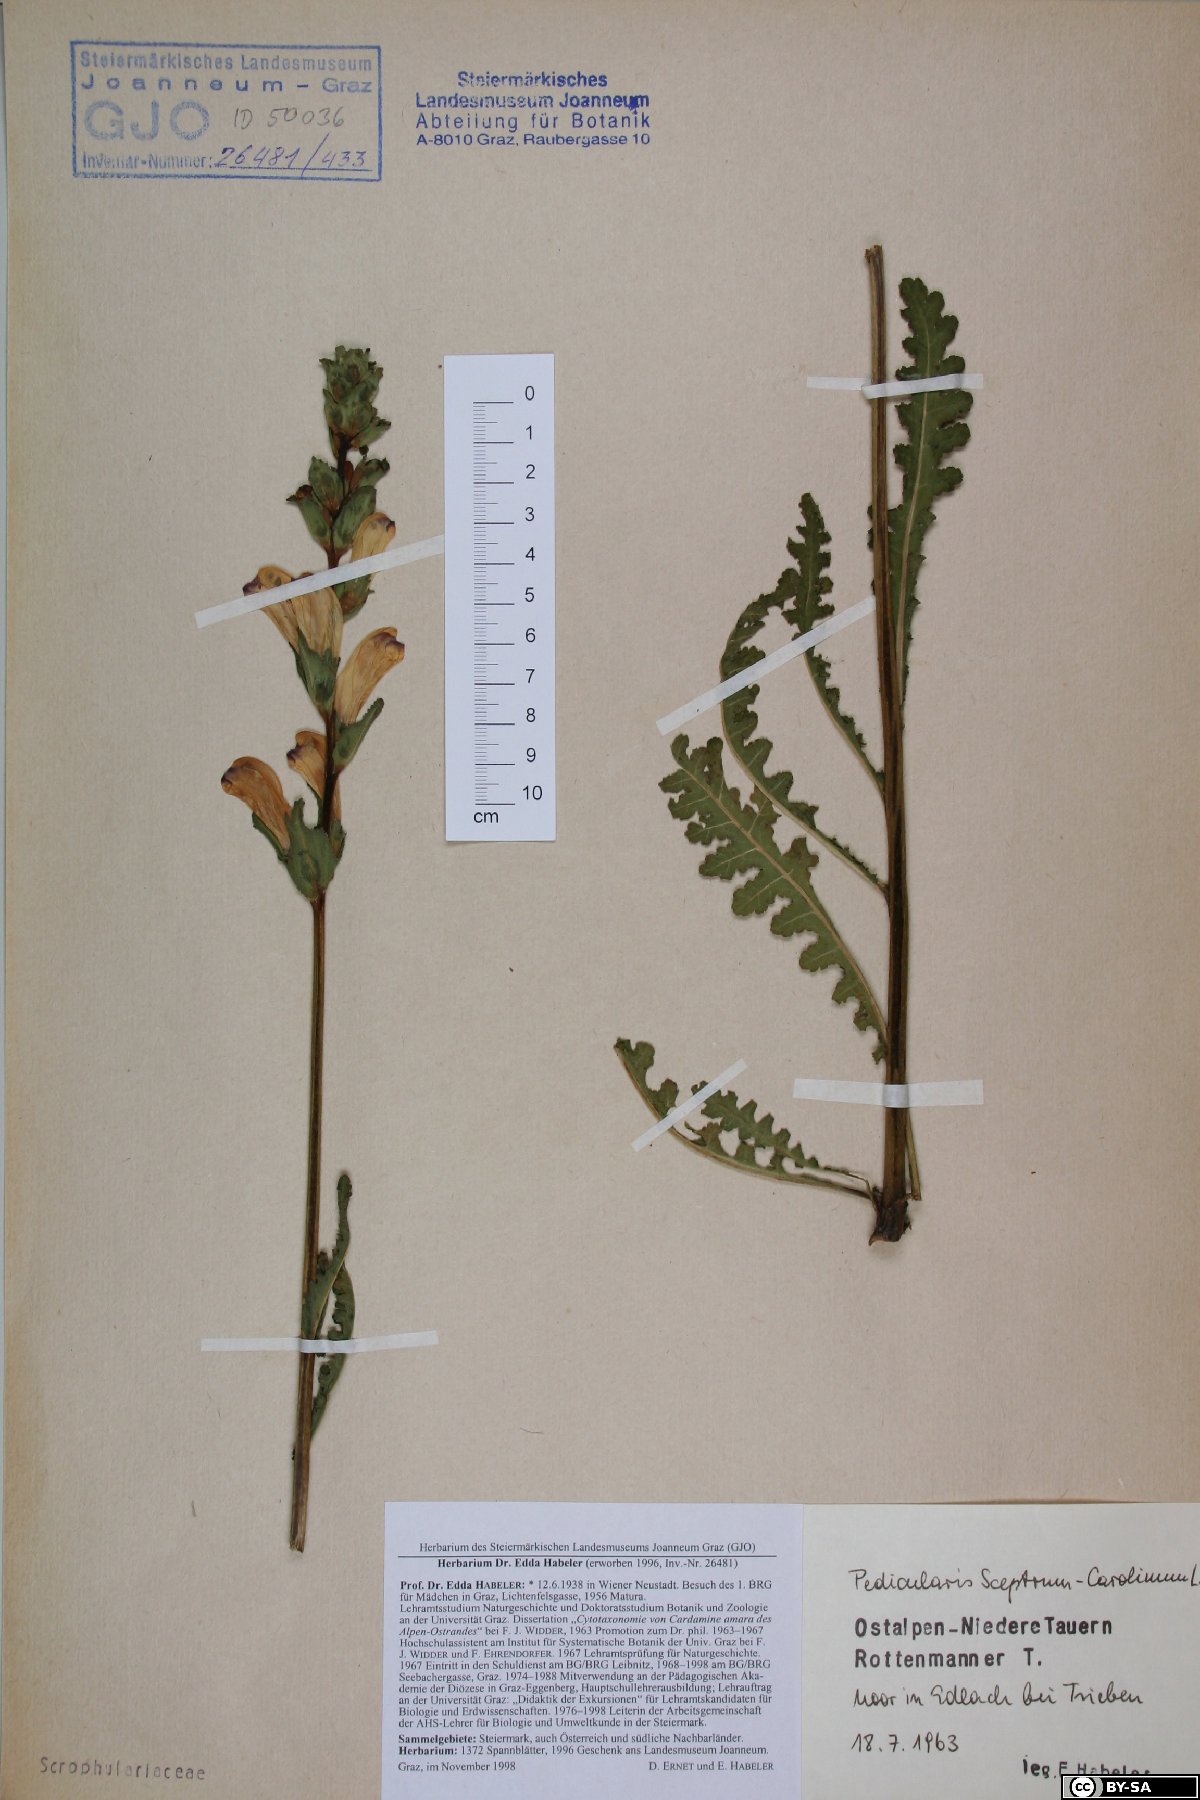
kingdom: Plantae
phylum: Tracheophyta
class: Magnoliopsida
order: Lamiales
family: Orobanchaceae
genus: Pedicularis
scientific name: Pedicularis sceptrum-carolinum
